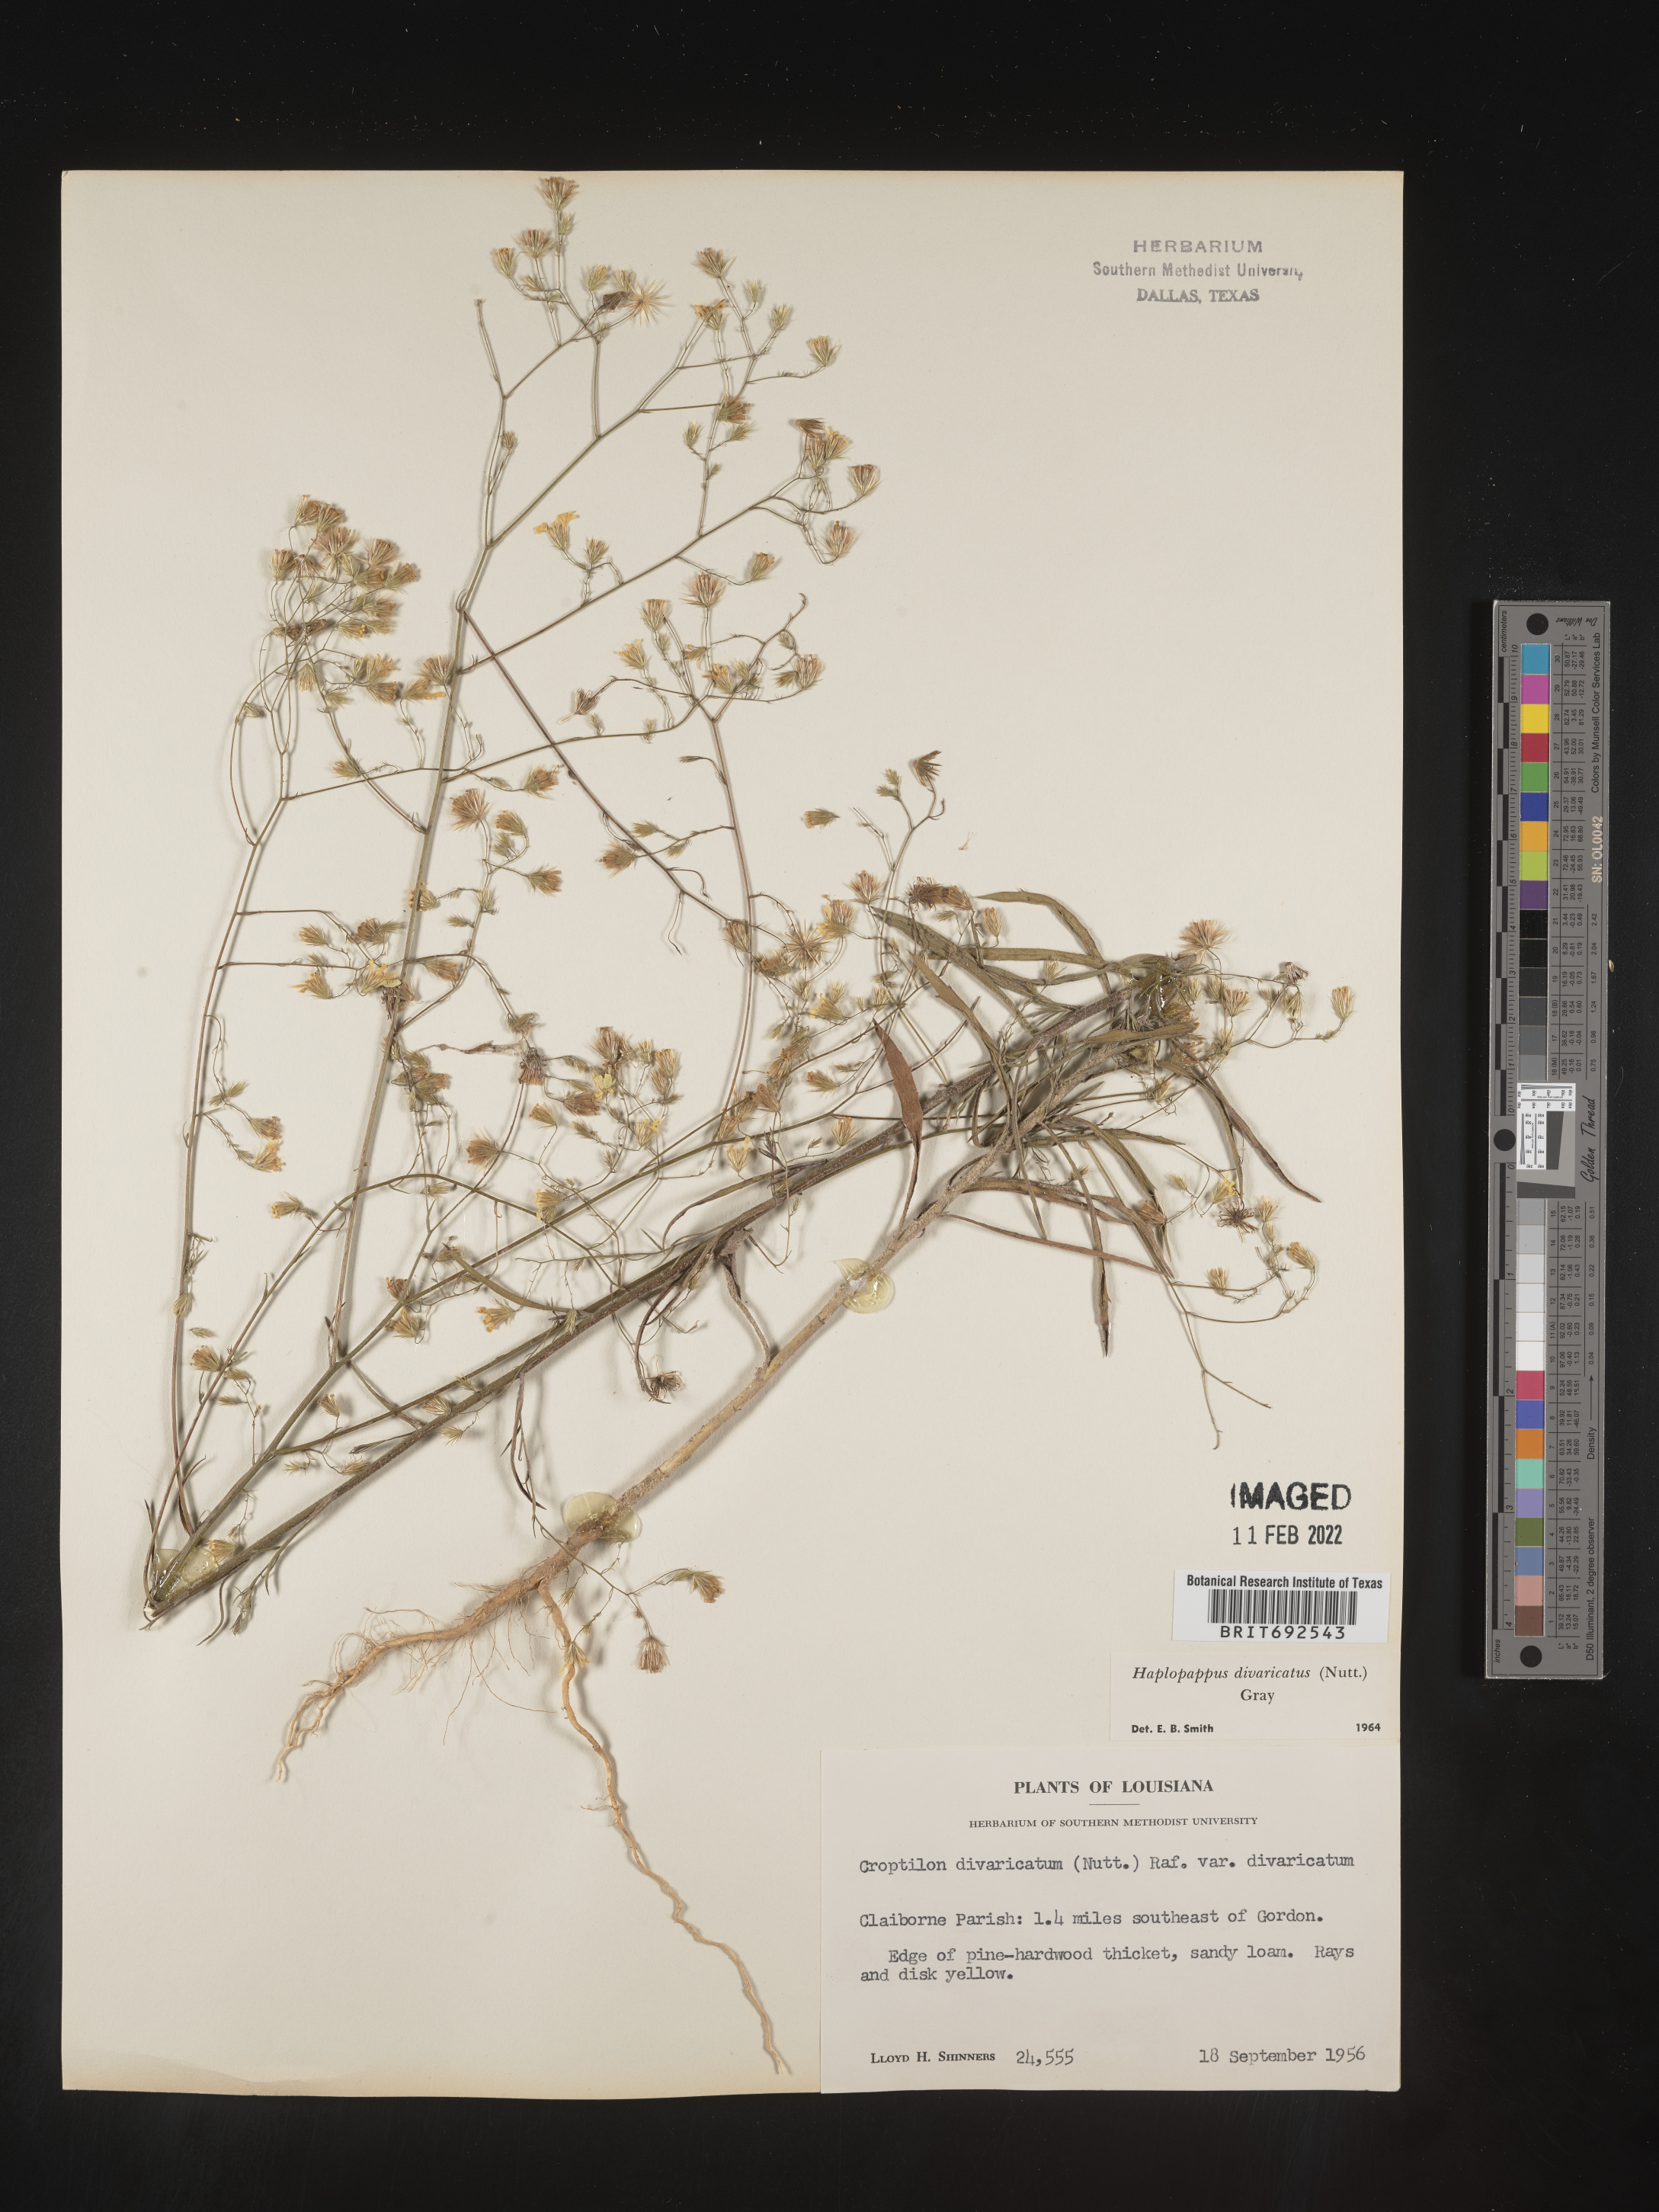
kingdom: Plantae
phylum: Tracheophyta
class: Magnoliopsida
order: Asterales
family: Asteraceae
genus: Croptilon
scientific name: Croptilon divaricatum
